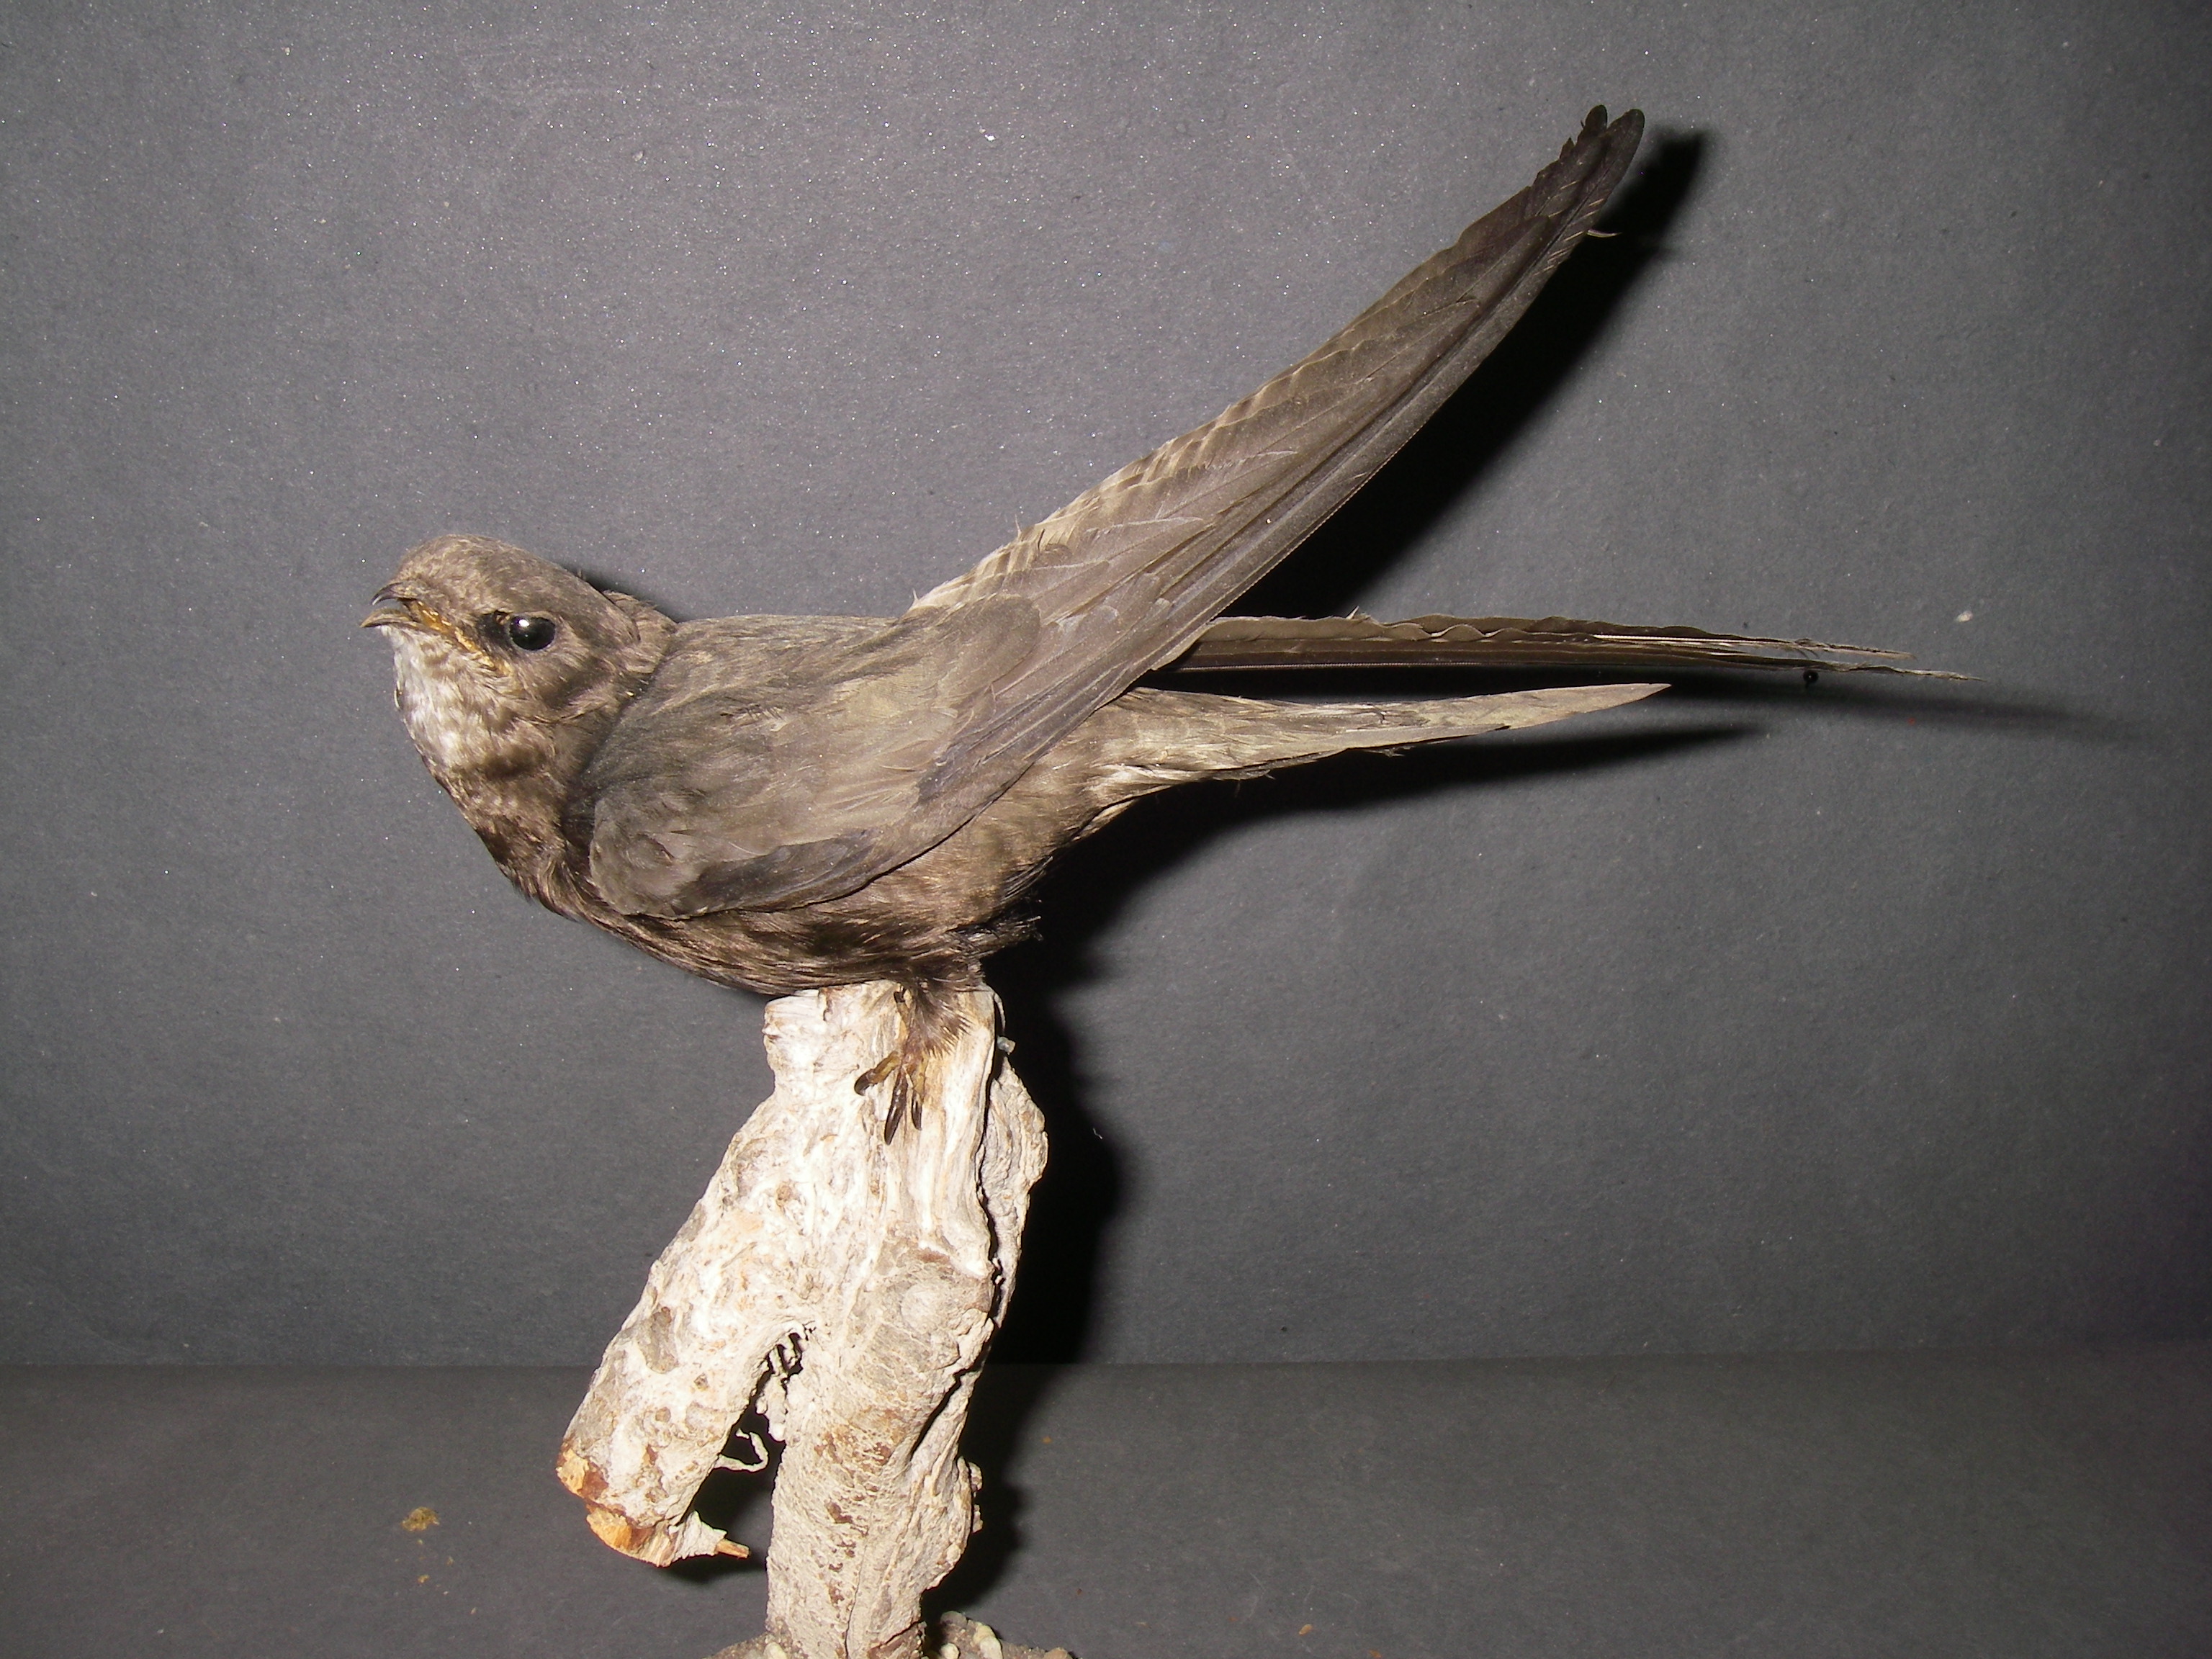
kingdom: Animalia
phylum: Chordata
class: Aves
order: Apodiformes
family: Apodidae
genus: Apus
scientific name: Apus apus
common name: Common swift
